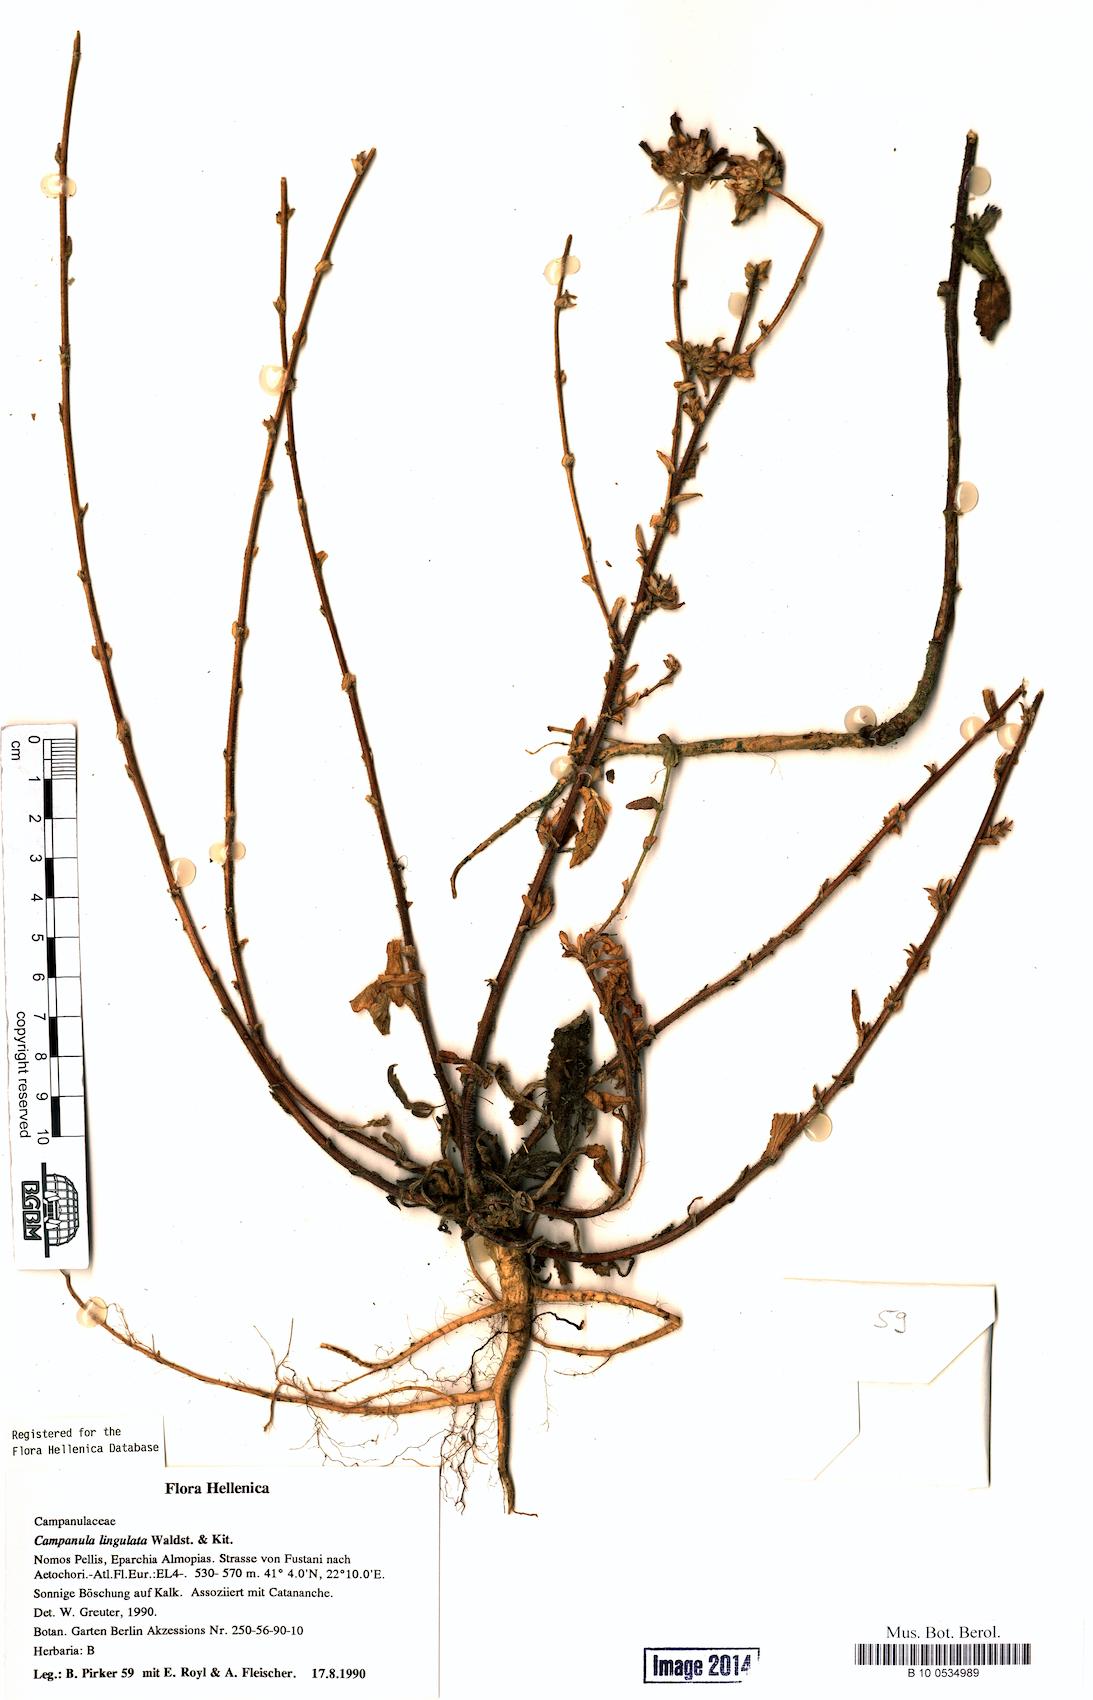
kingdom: Plantae
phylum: Tracheophyta
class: Magnoliopsida
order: Asterales
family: Campanulaceae
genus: Campanula
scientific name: Campanula lingulata
